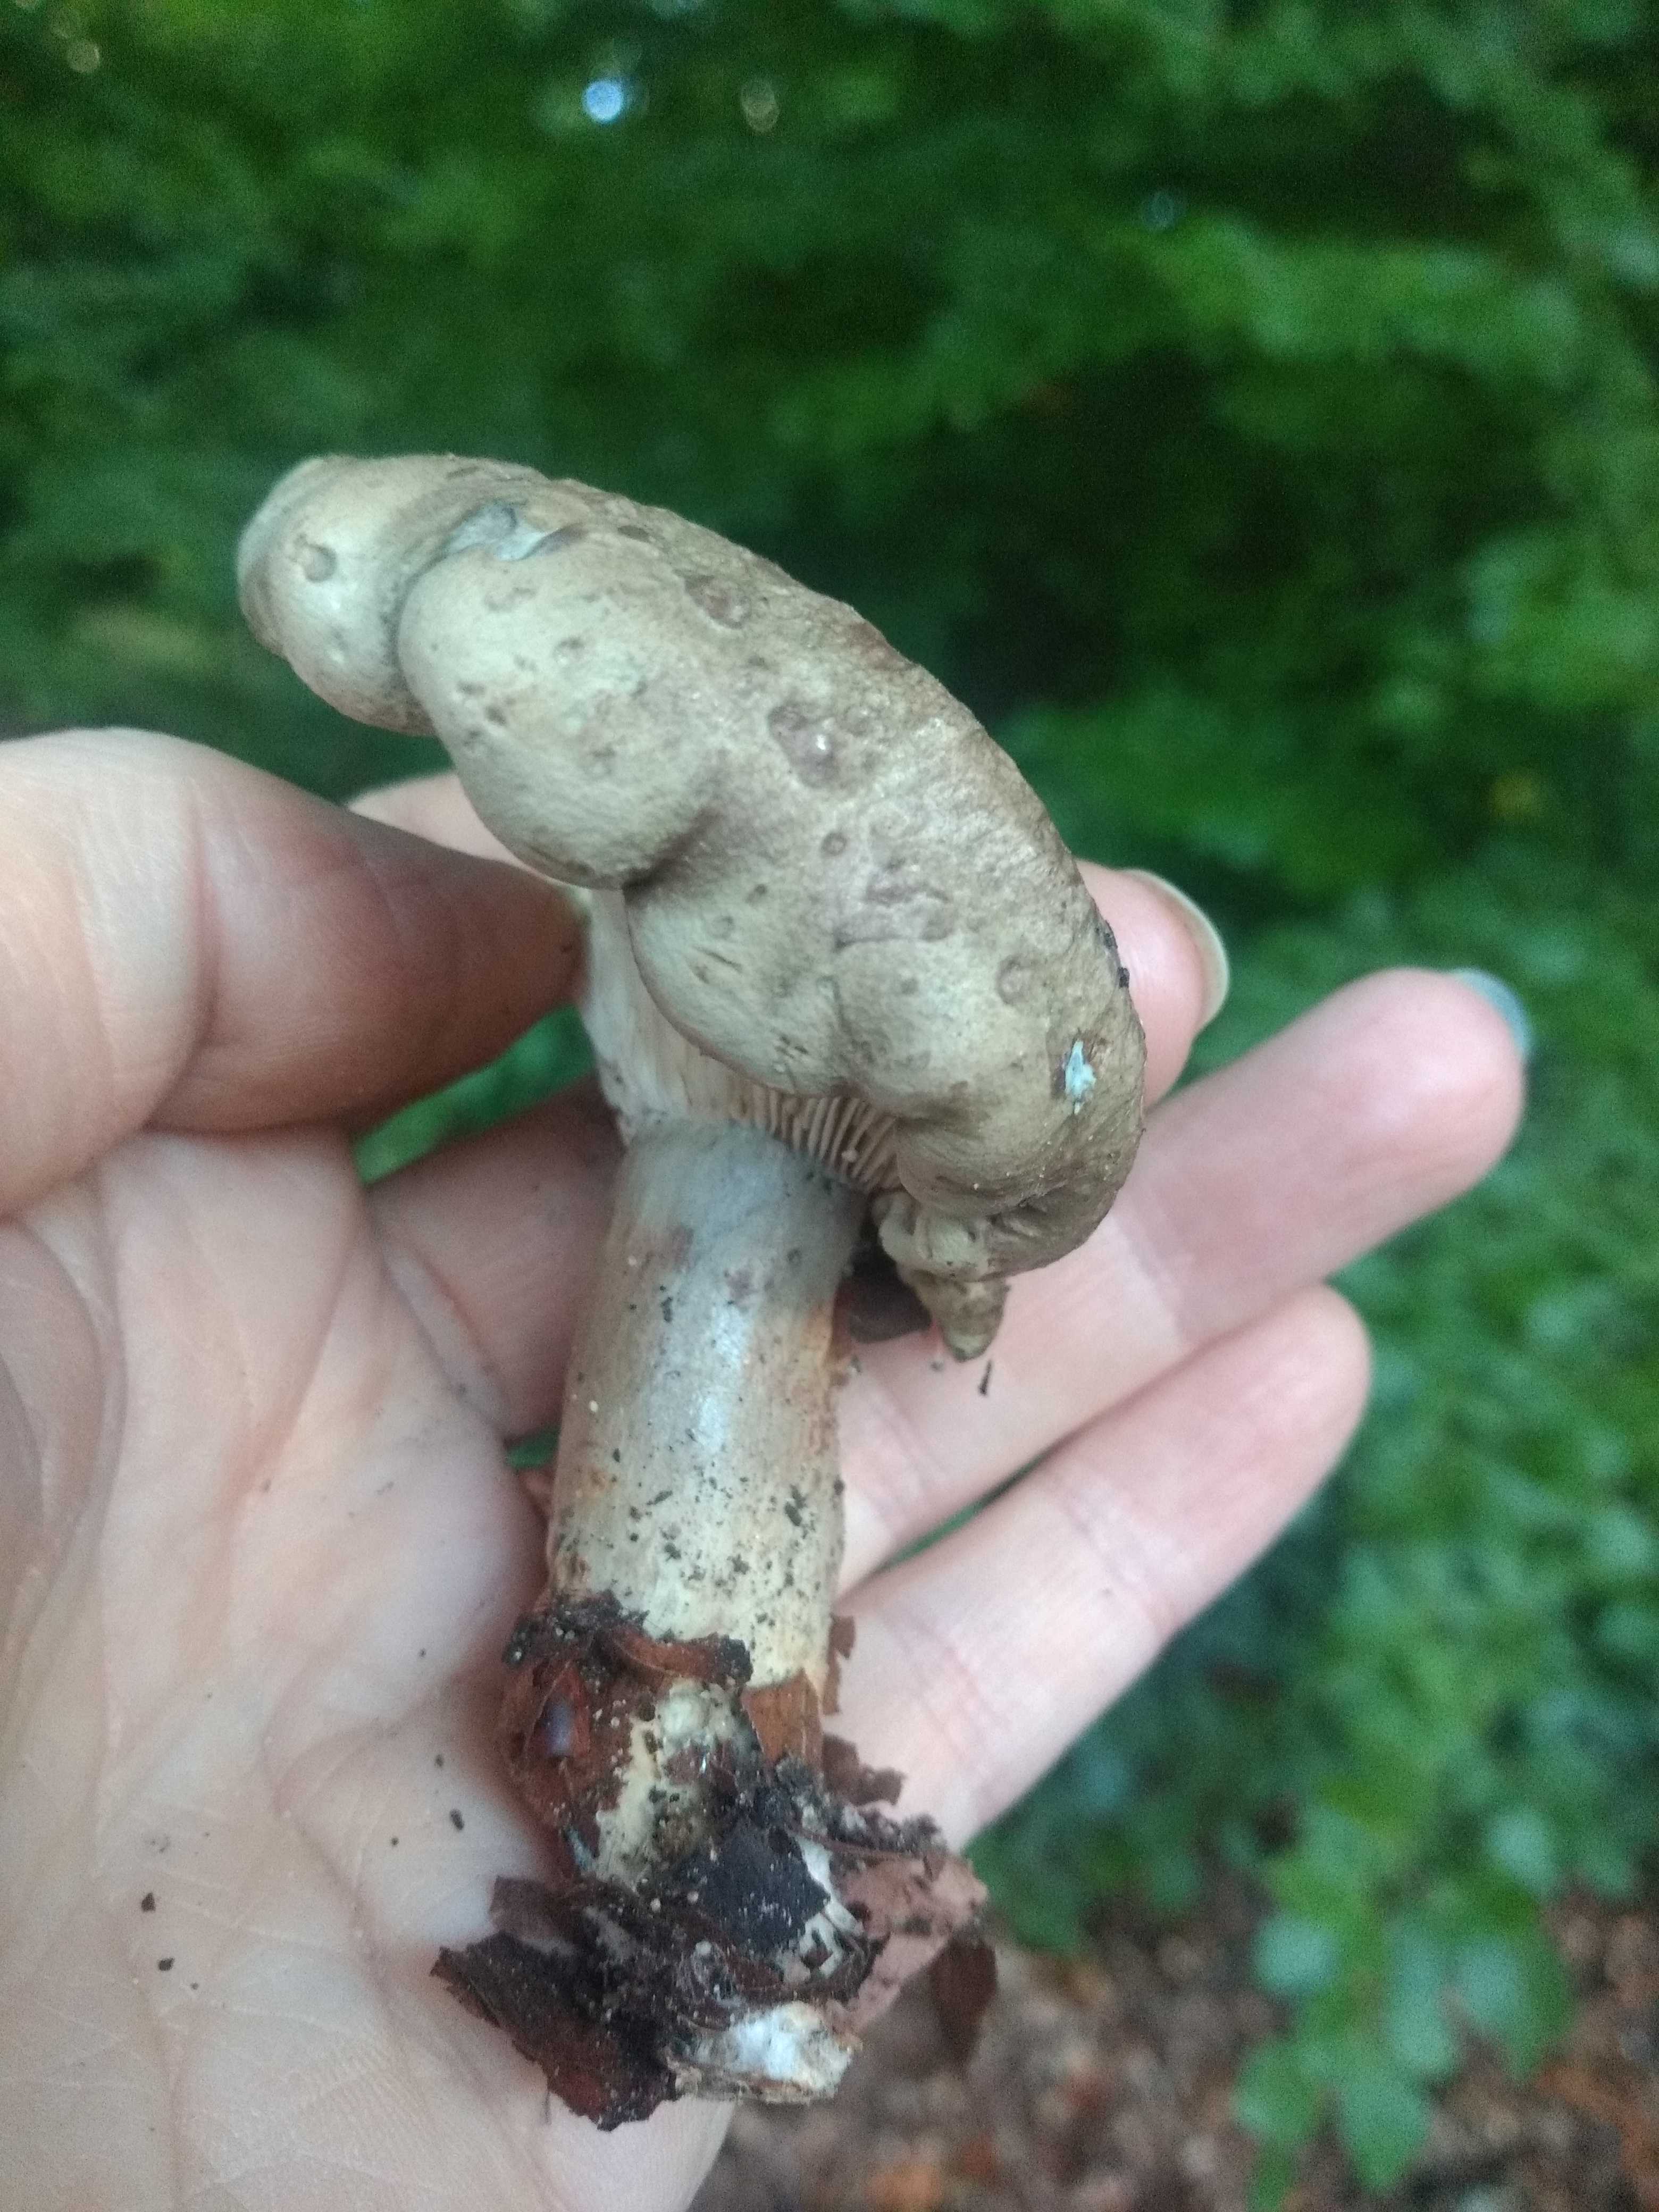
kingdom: Fungi
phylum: Basidiomycota
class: Agaricomycetes
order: Russulales
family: Russulaceae
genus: Lactarius
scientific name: Lactarius blennius
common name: dråbeplettet mælkehat
